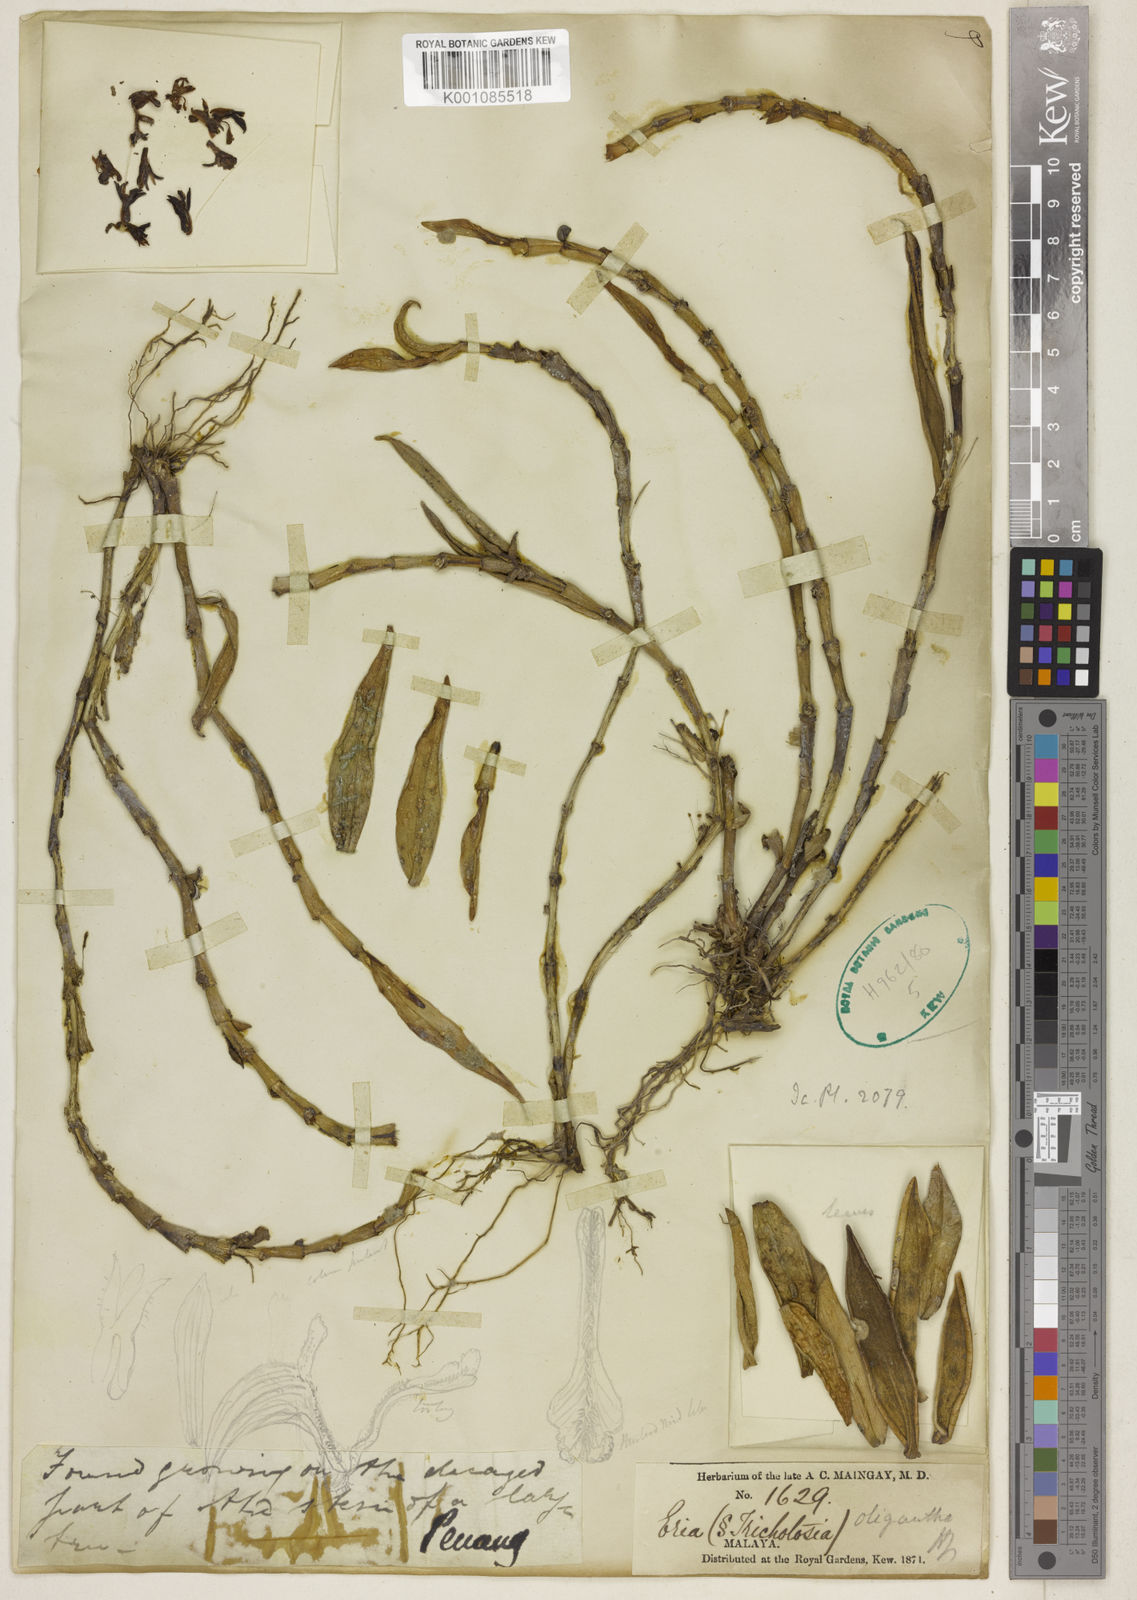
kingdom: Plantae
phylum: Tracheophyta
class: Liliopsida
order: Asparagales
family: Orchidaceae
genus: Trichotosia
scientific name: Trichotosia gracilis
